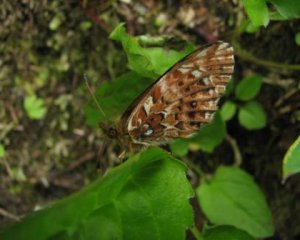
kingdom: Animalia
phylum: Arthropoda
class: Insecta
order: Lepidoptera
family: Nymphalidae
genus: Boloria
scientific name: Boloria chariclea
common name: Arctic Fritillary
